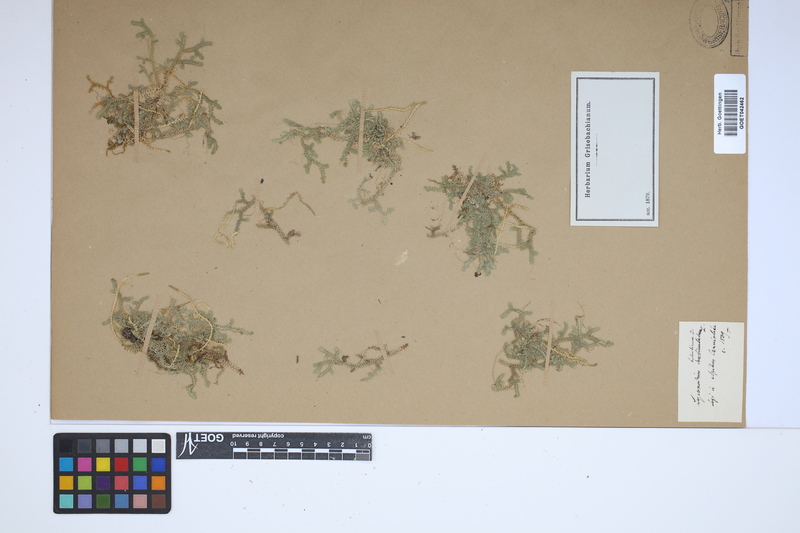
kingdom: Plantae
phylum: Tracheophyta
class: Lycopodiopsida
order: Selaginellales
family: Selaginellaceae
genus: Selaginella
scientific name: Selaginella helvetica
